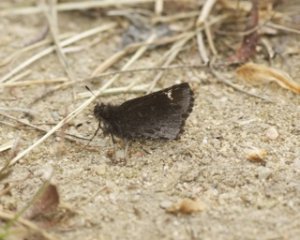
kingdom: Animalia
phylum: Arthropoda
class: Insecta
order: Lepidoptera
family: Hesperiidae
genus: Mastor
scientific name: Mastor vialis
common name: Common Roadside-Skipper
